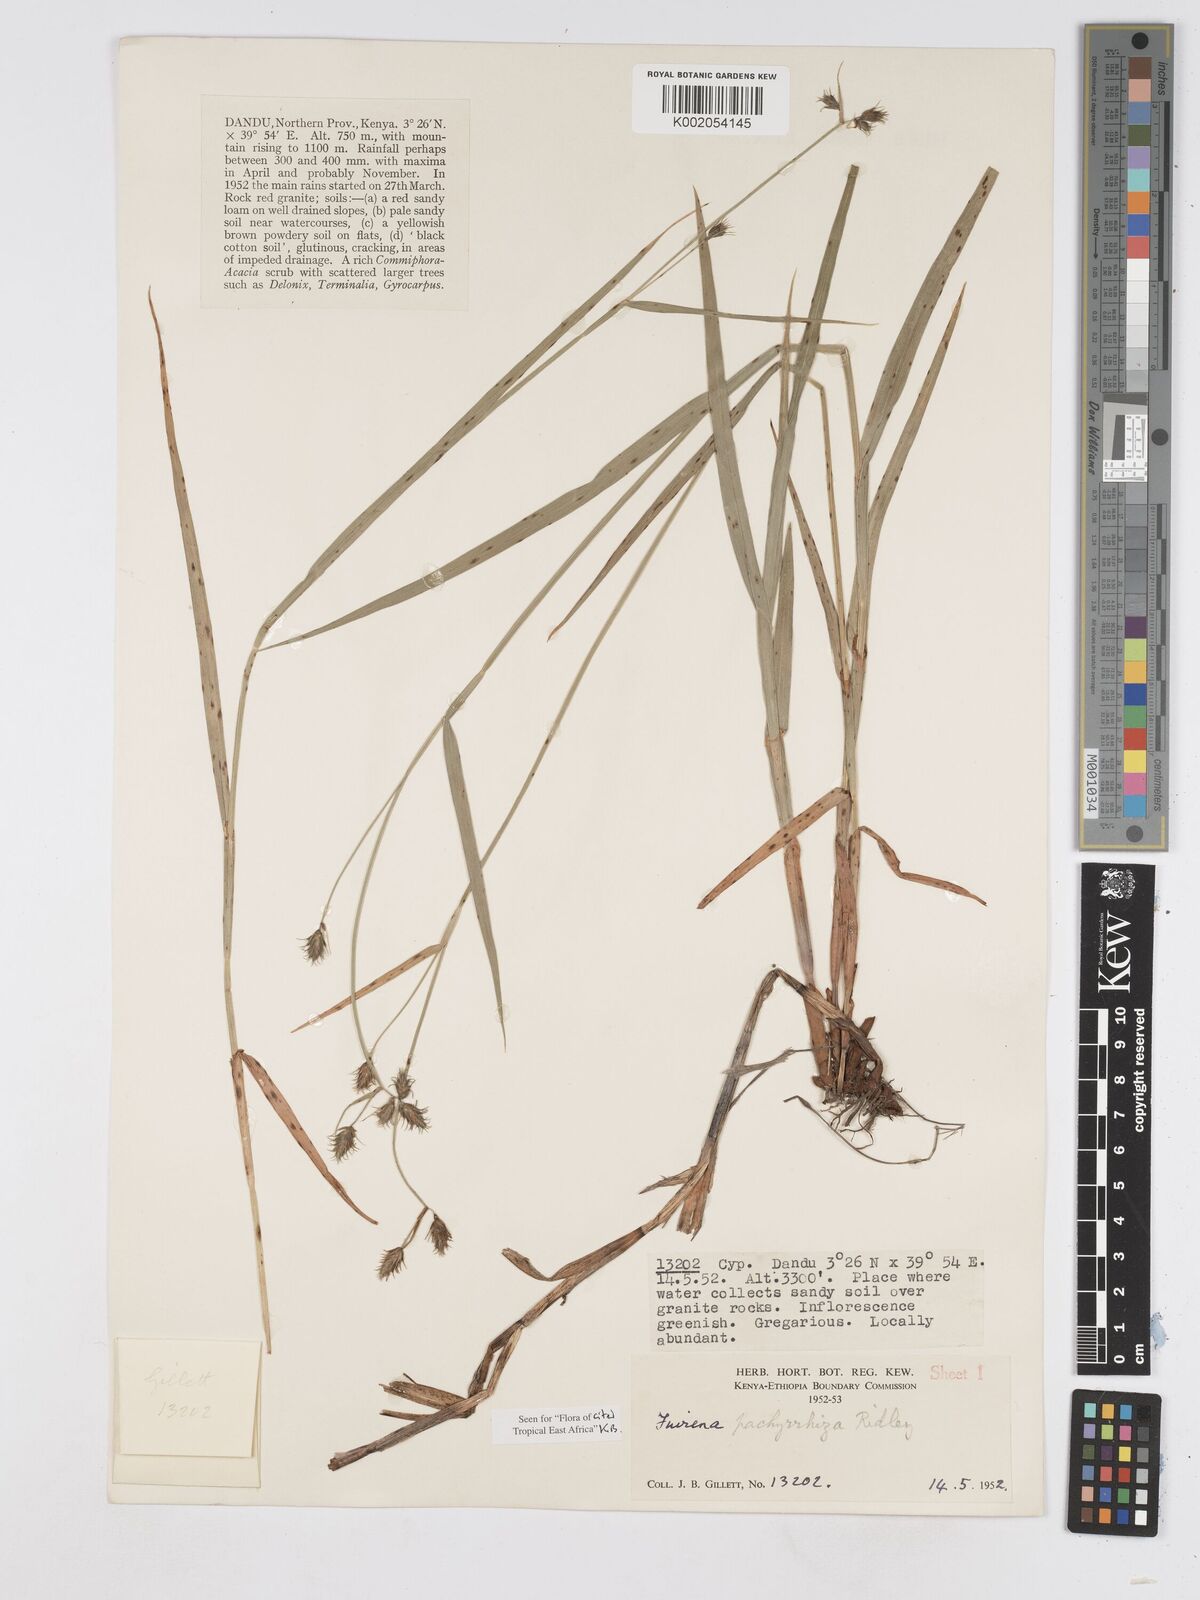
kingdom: Plantae
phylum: Tracheophyta
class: Liliopsida
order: Poales
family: Cyperaceae
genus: Fuirena
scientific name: Fuirena pachyrrhiza
